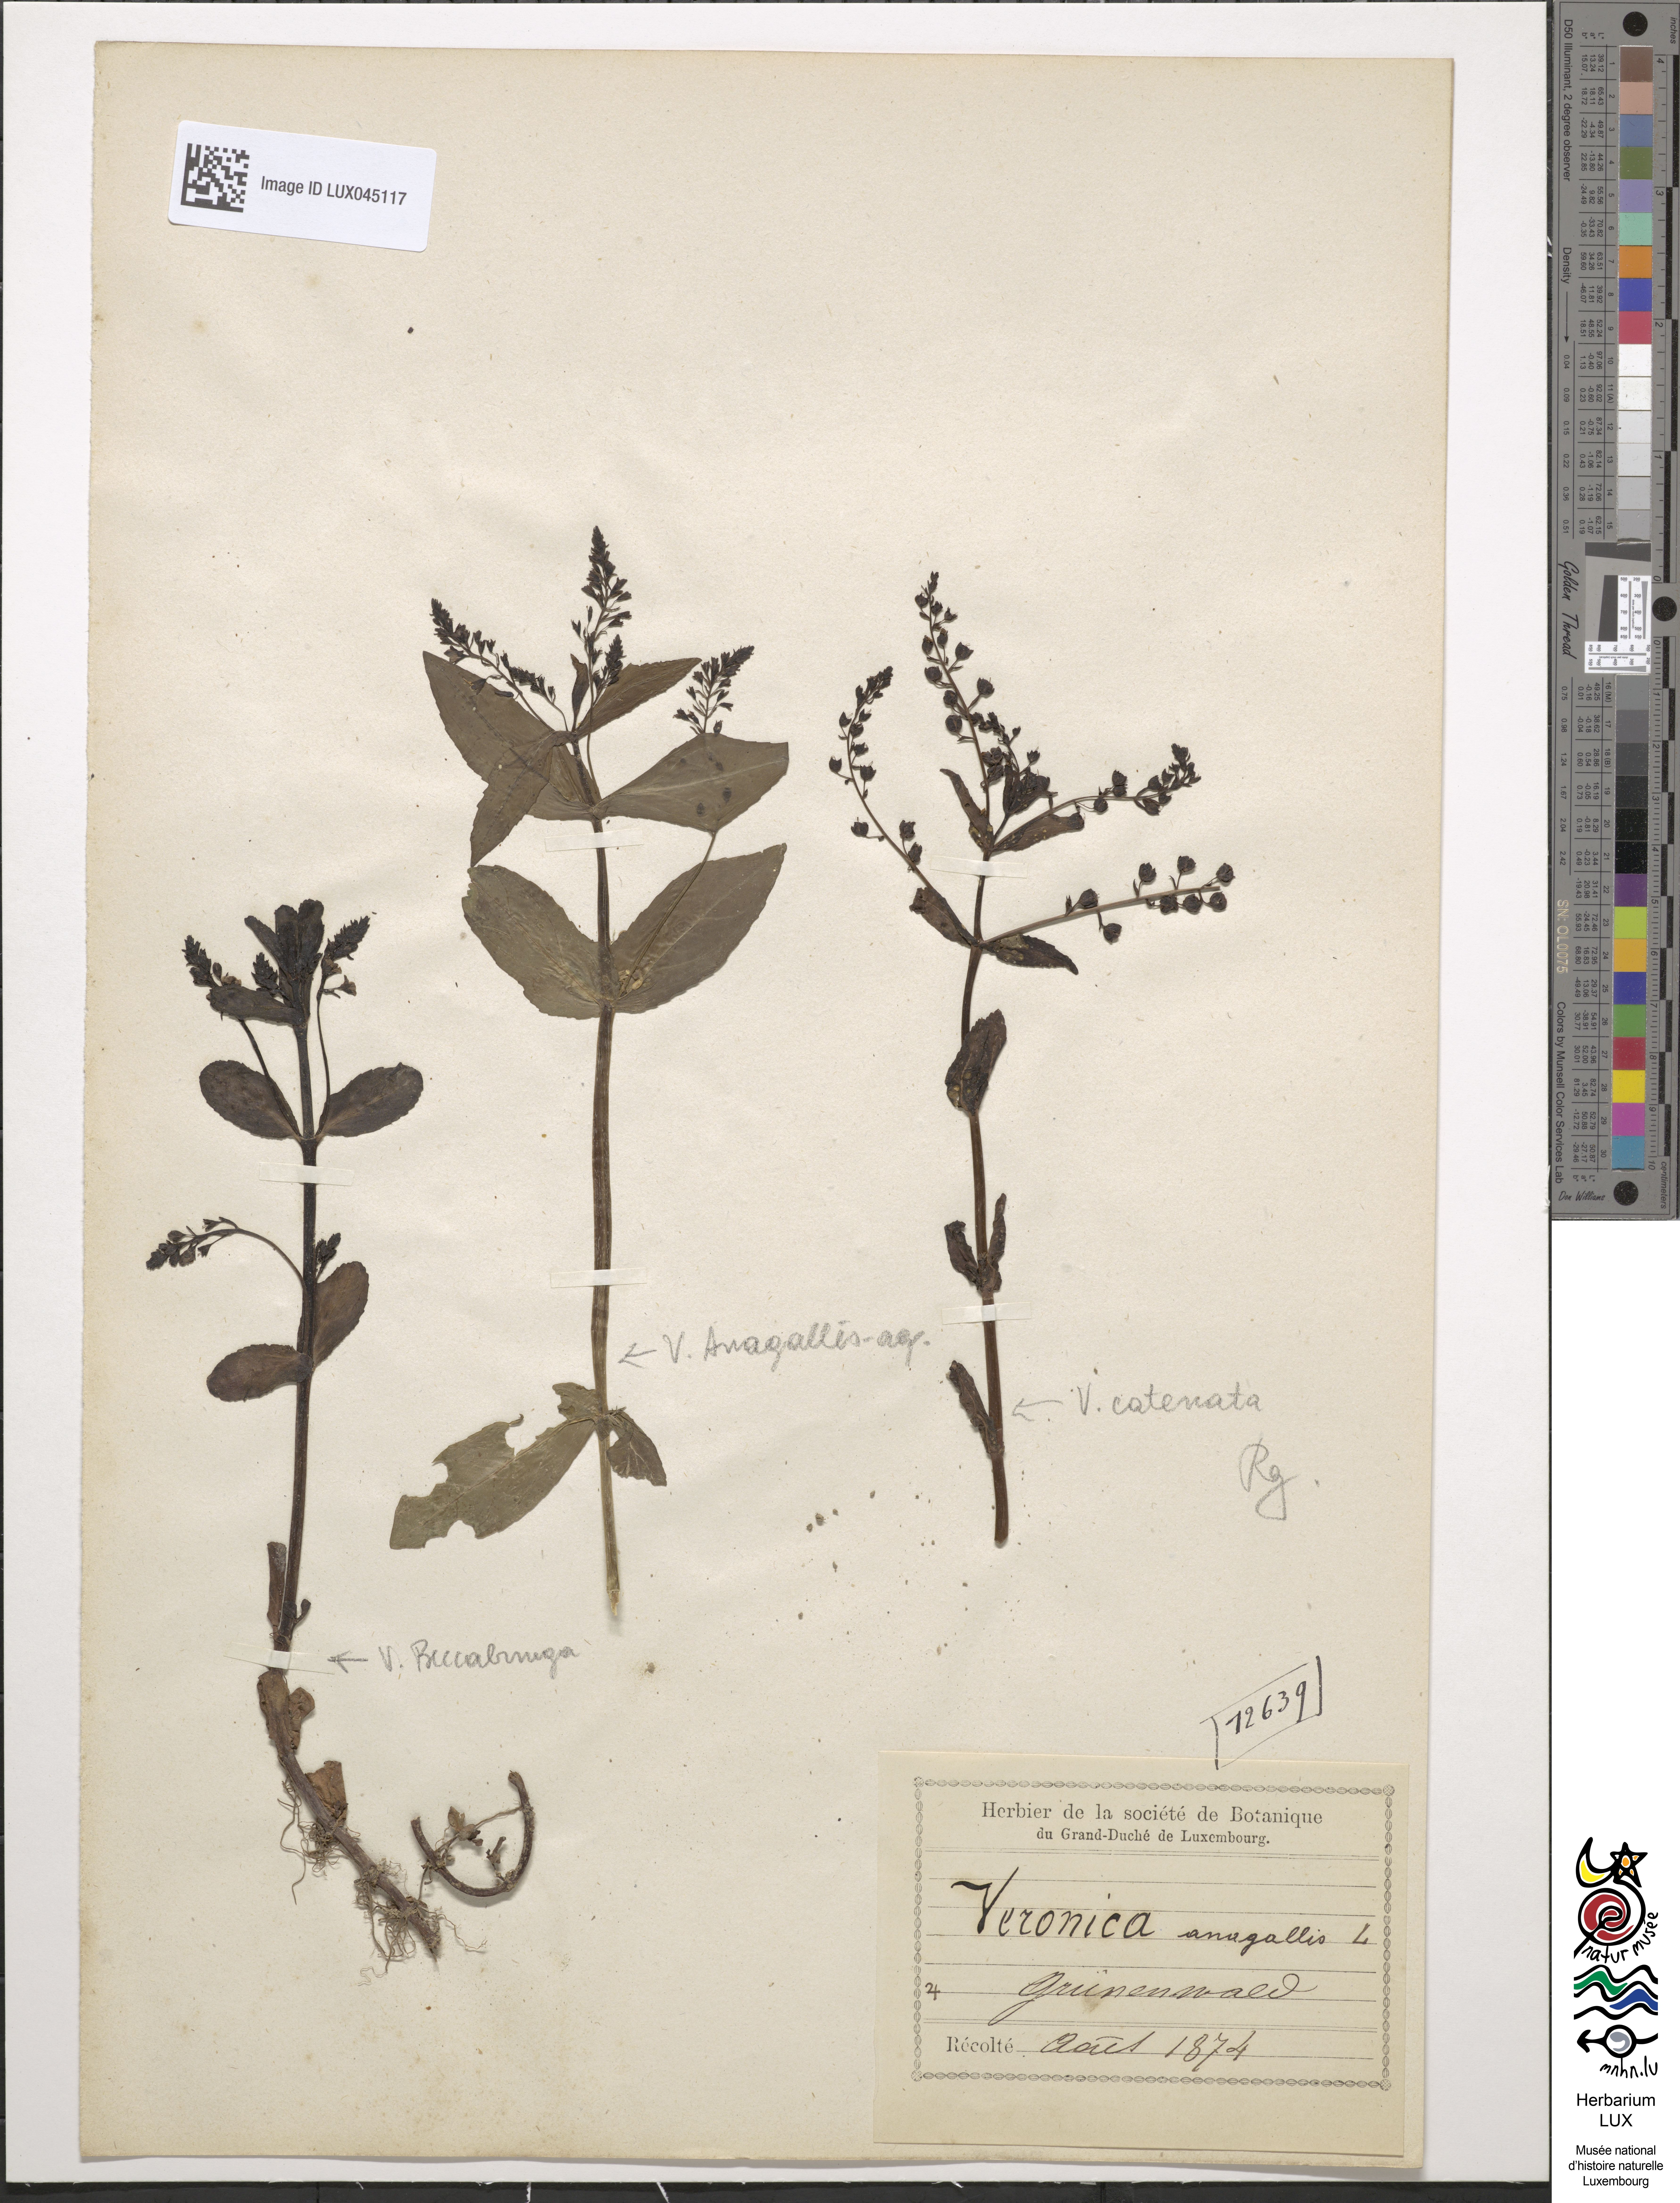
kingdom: Plantae
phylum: Tracheophyta
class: Magnoliopsida
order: Lamiales
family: Plantaginaceae
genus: Veronica
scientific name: Veronica anagallis-aquatica
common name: Water speedwell
